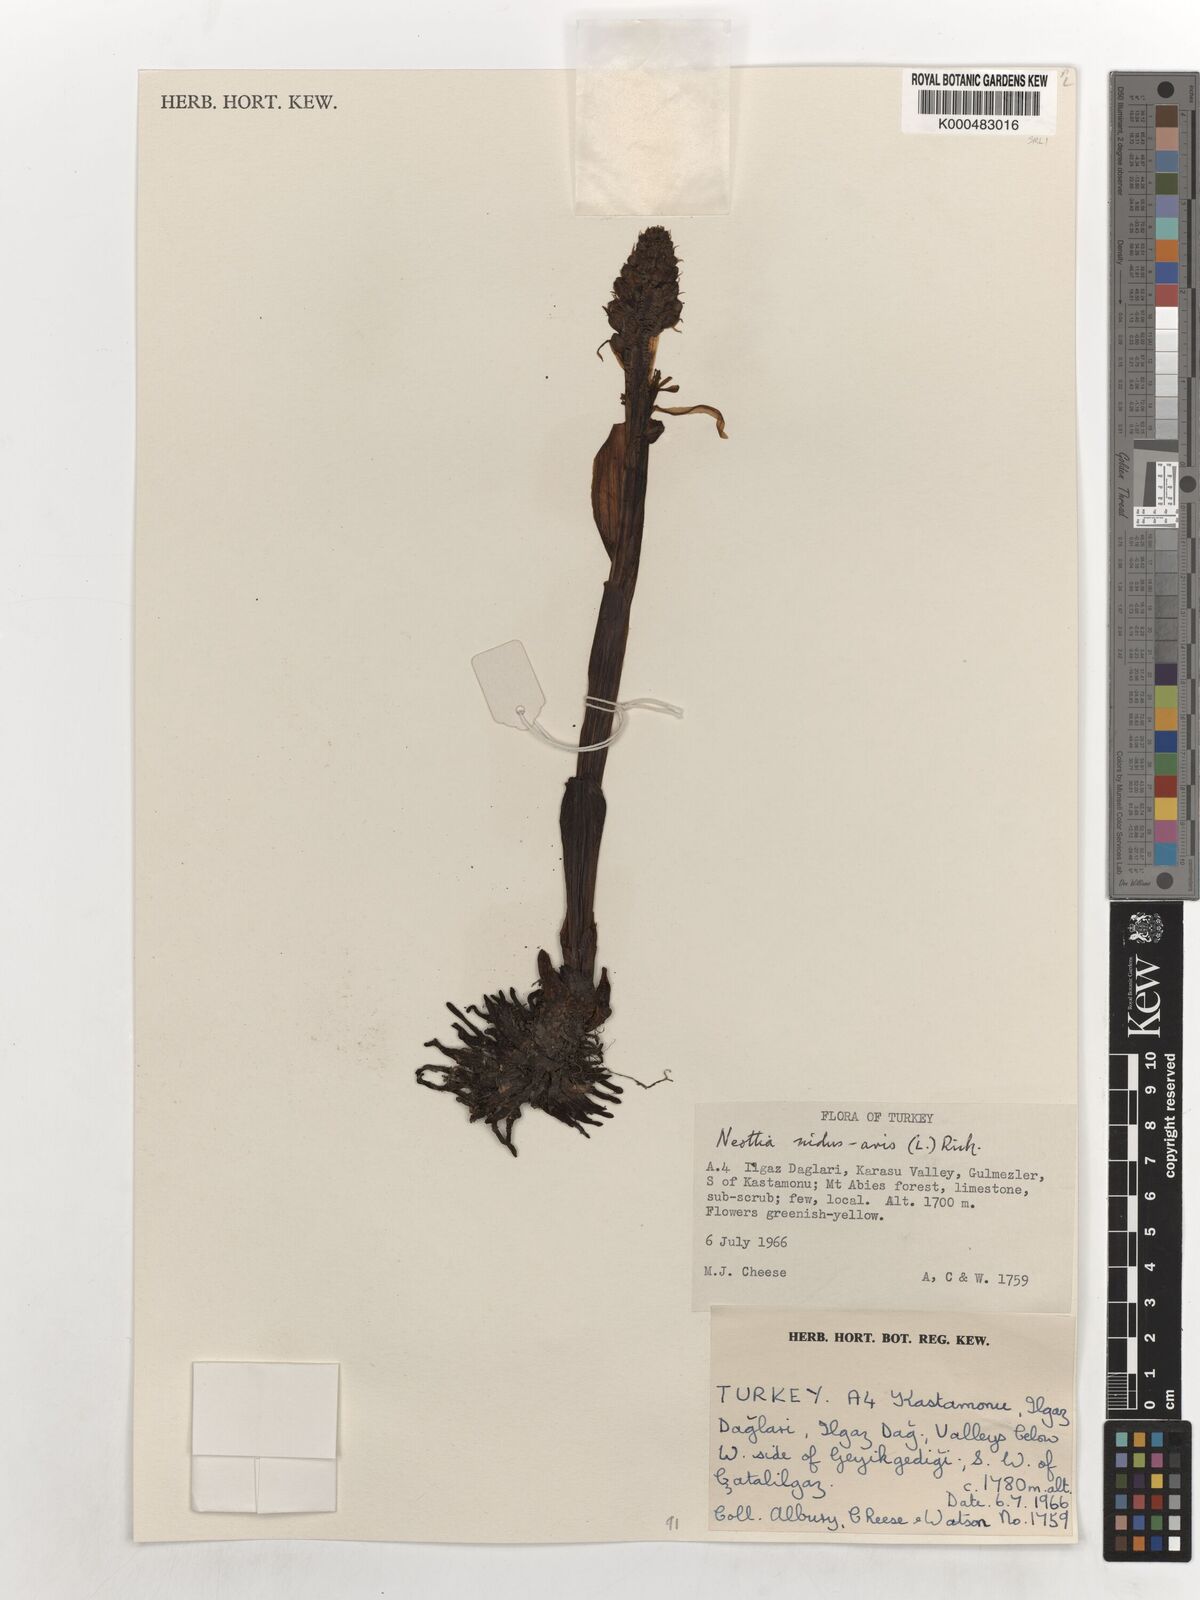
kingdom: Plantae
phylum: Tracheophyta
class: Liliopsida
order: Asparagales
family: Orchidaceae
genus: Neottia
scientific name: Neottia nidus-avis
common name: Bird's-nest orchid
